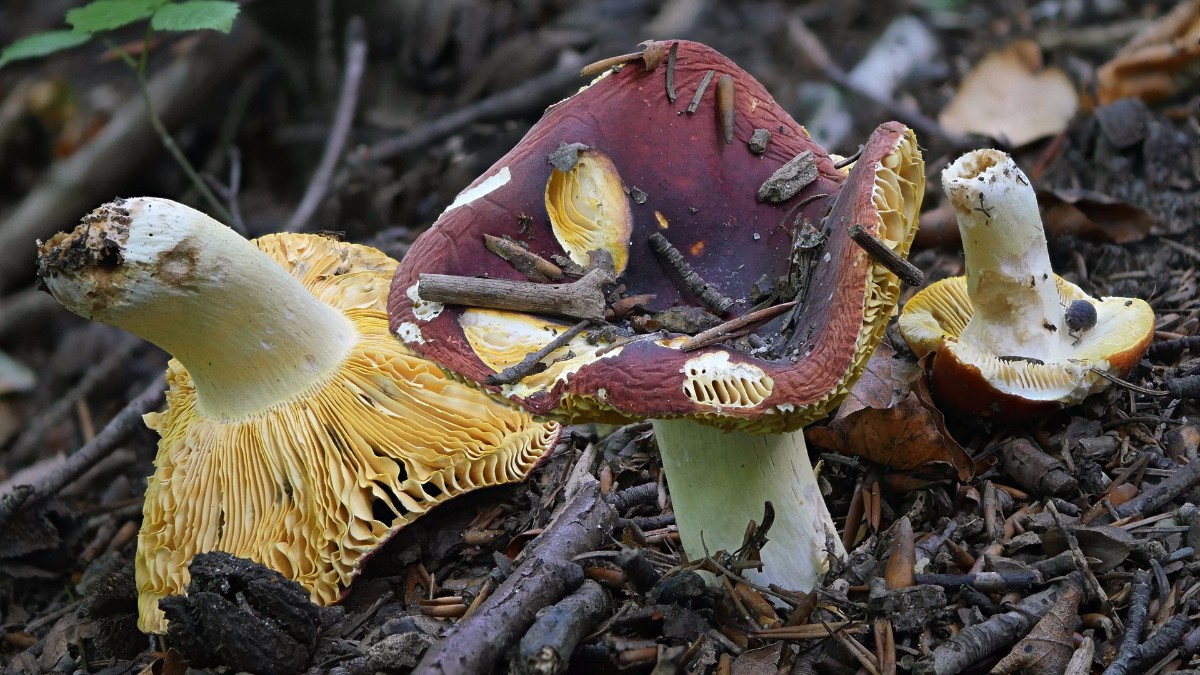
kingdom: Fungi
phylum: Basidiomycota
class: Agaricomycetes
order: Russulales
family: Russulaceae
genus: Russula
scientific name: Russula aurea
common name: gylden skørhat
